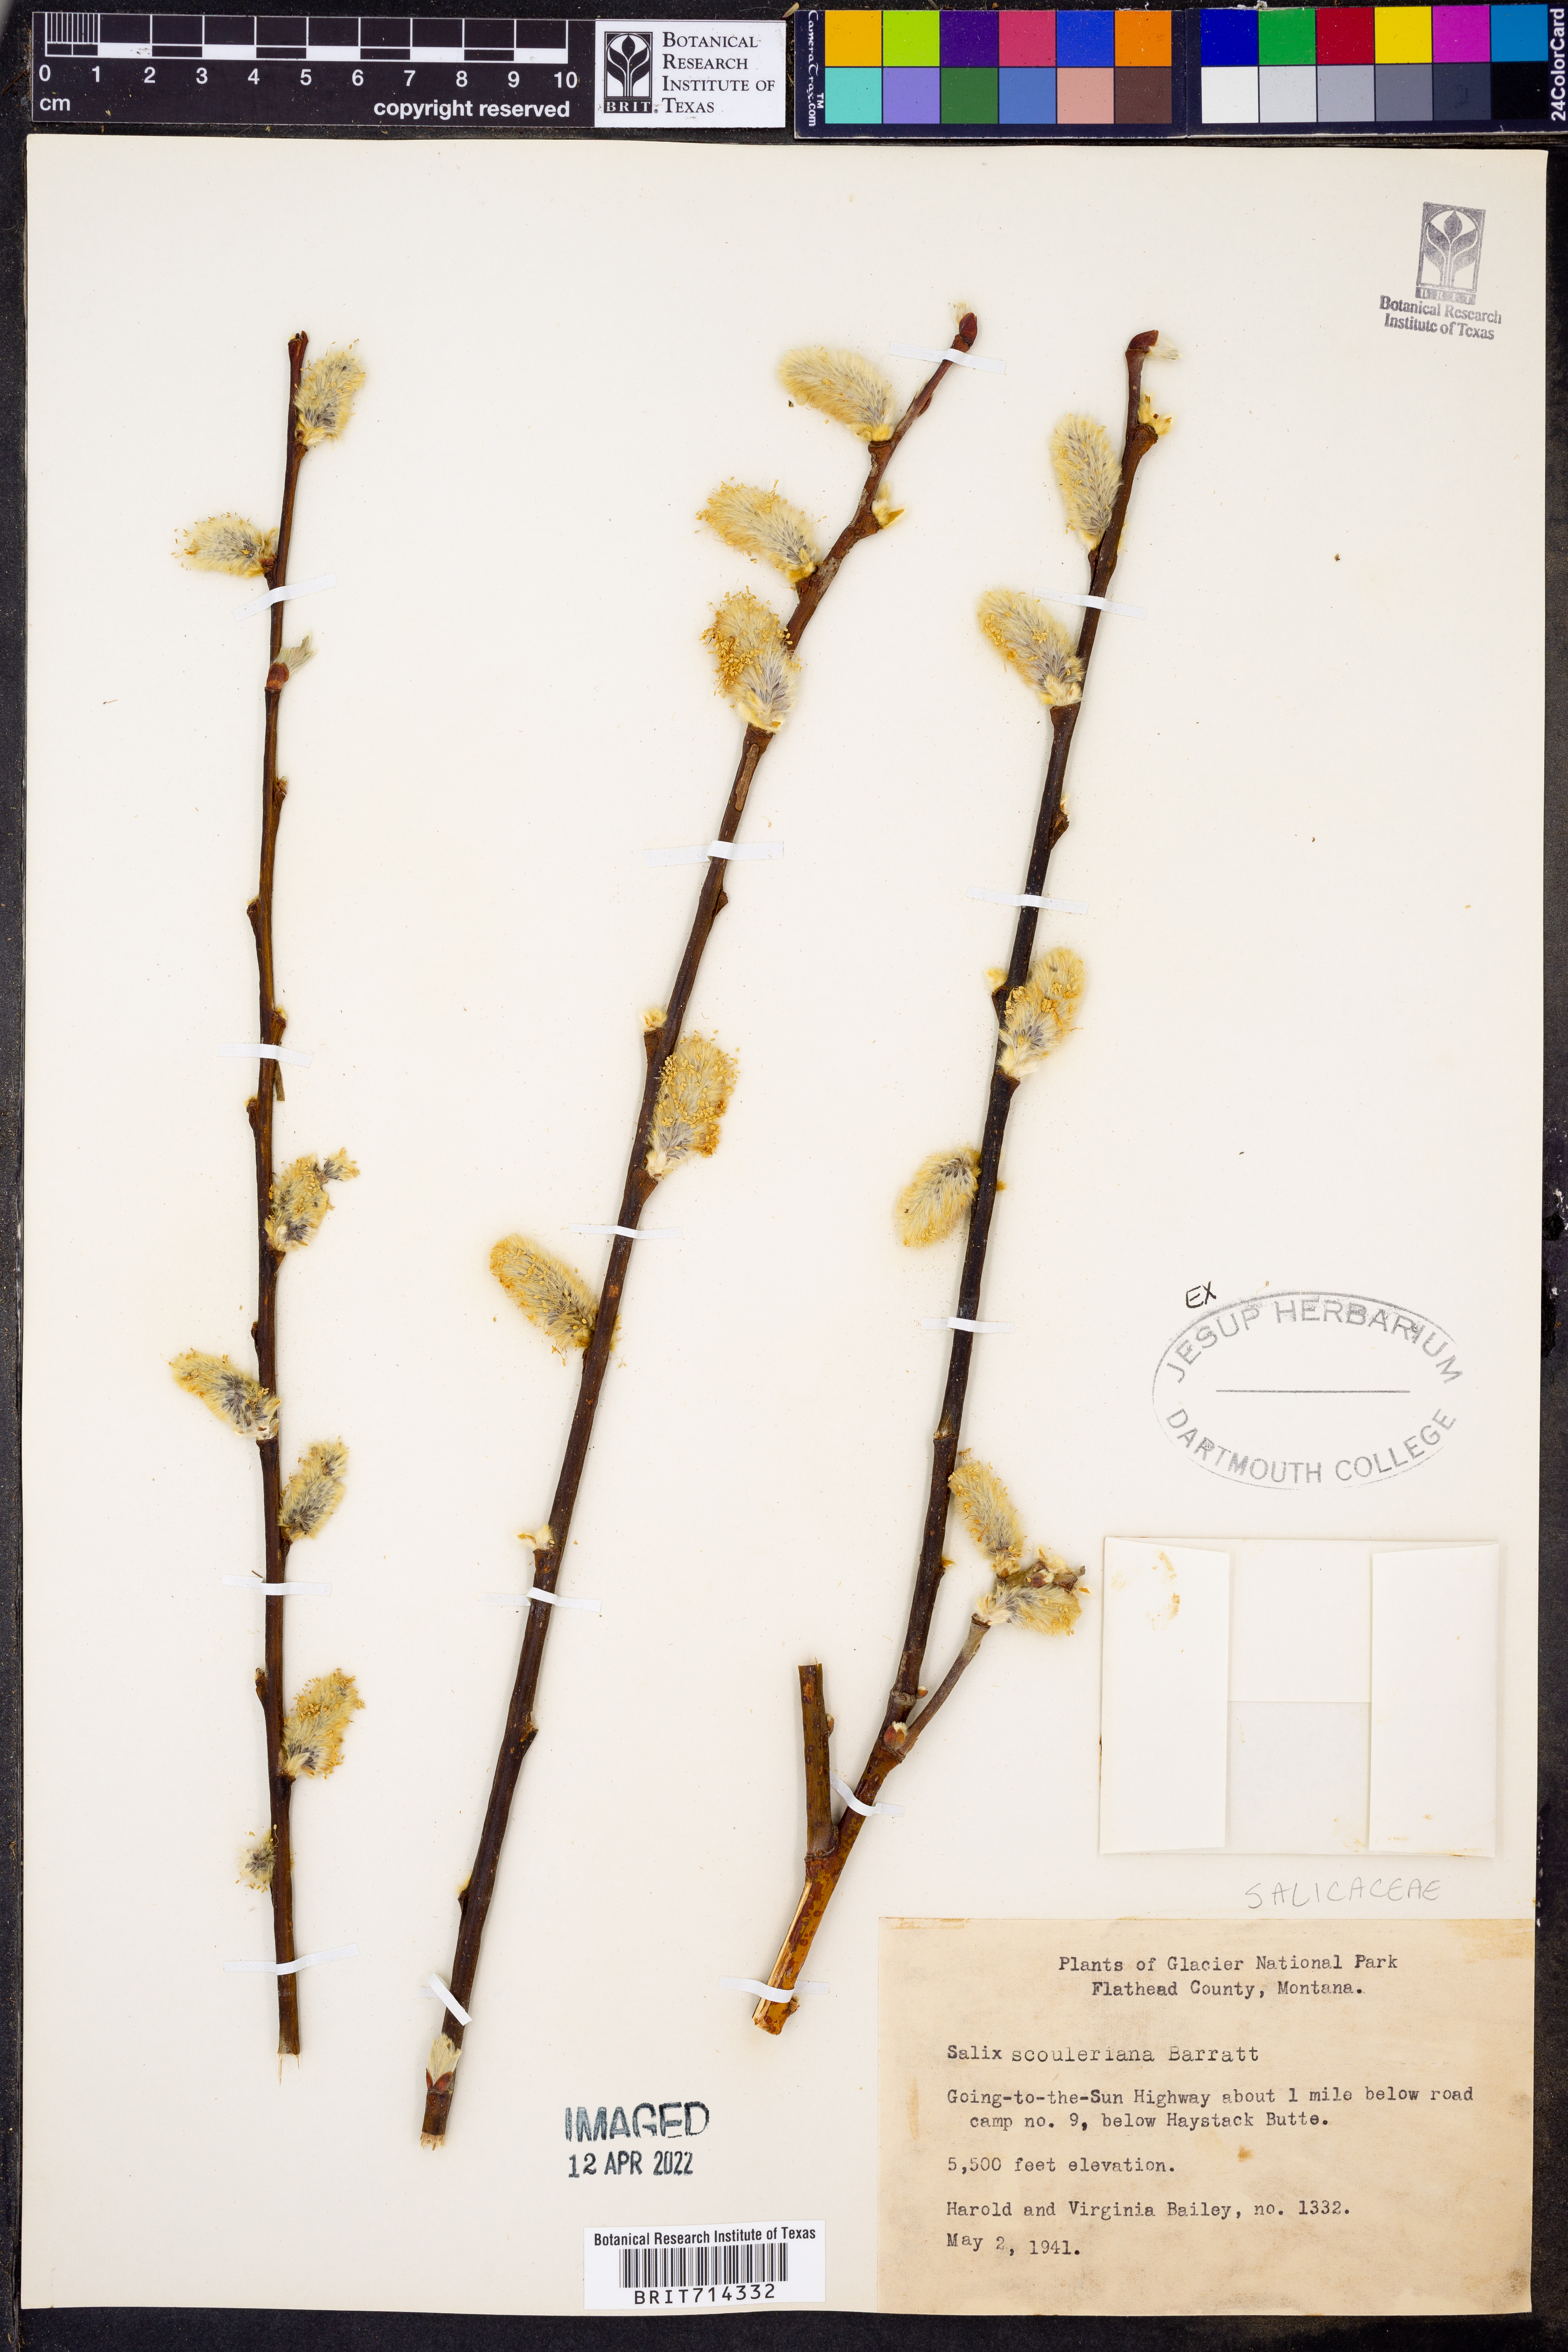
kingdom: Plantae
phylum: Tracheophyta
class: Magnoliopsida
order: Malpighiales
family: Salicaceae
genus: Salix
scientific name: Salix scouleriana
